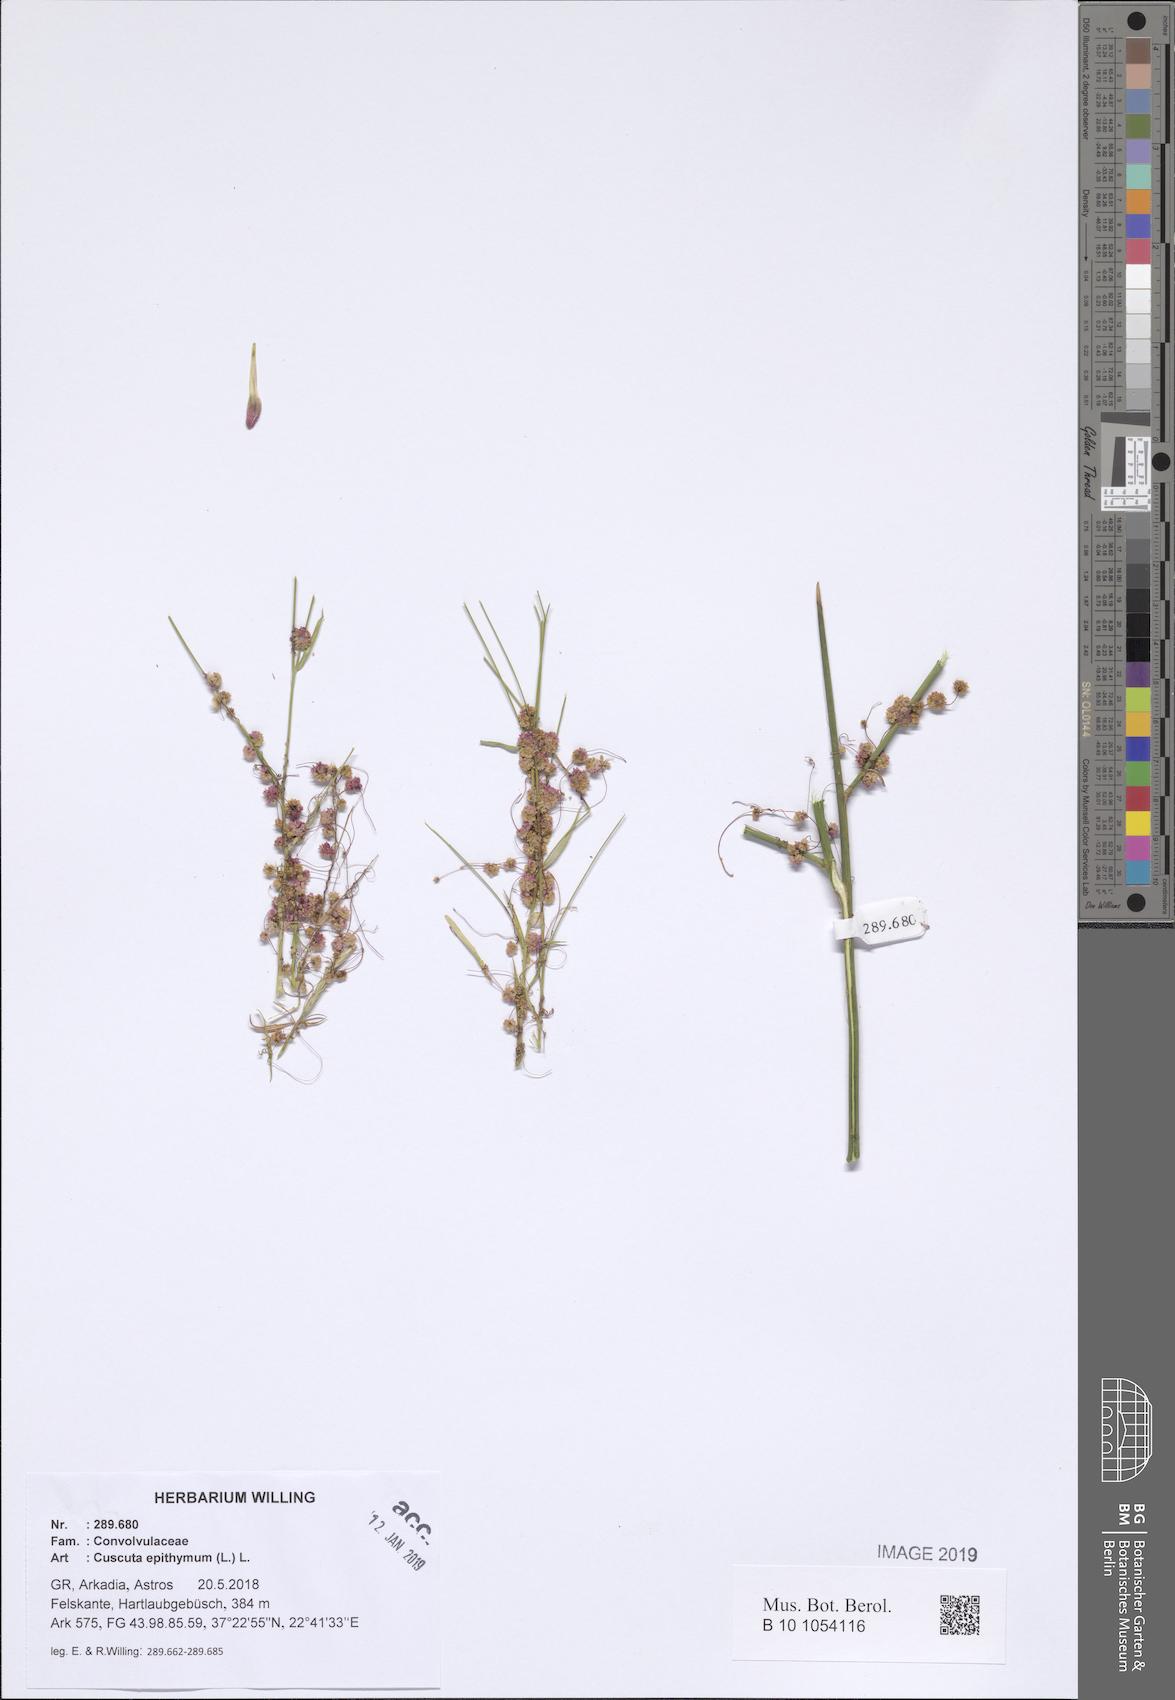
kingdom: Plantae
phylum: Tracheophyta
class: Magnoliopsida
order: Solanales
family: Convolvulaceae
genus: Cuscuta
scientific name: Cuscuta epithymum
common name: Clover dodder
